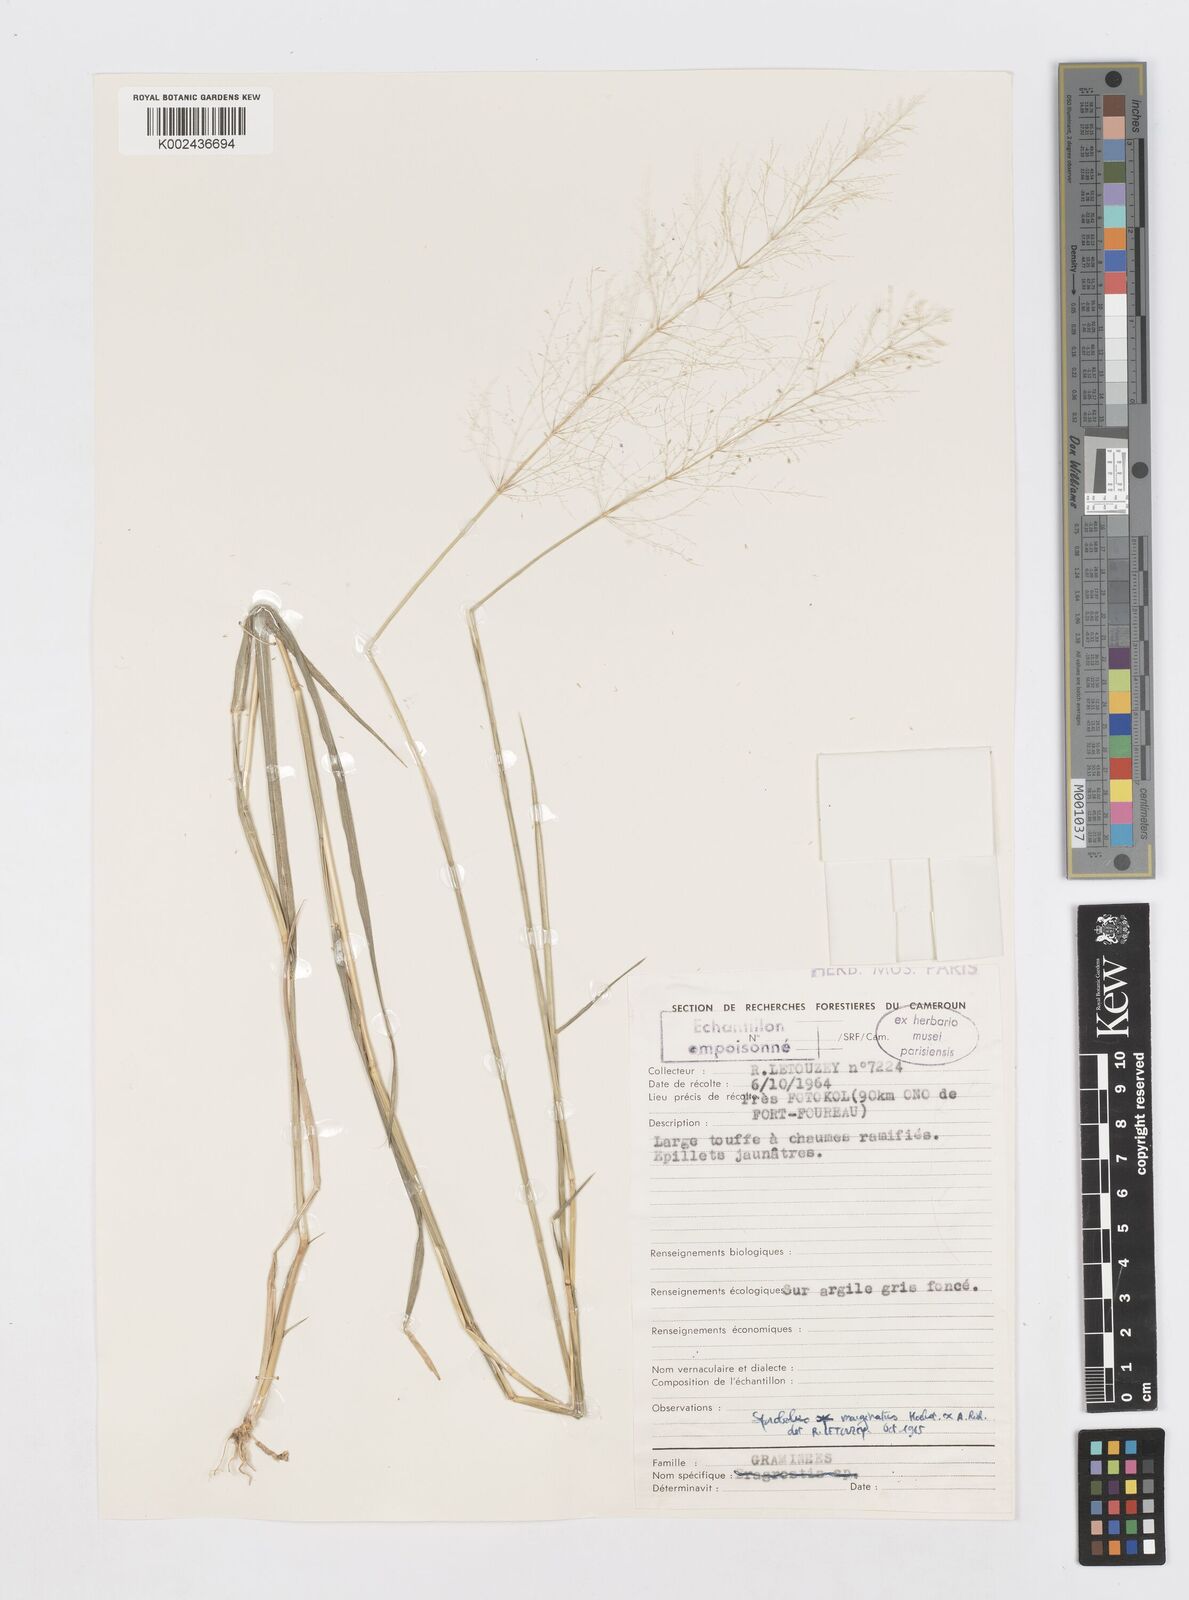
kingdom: Plantae
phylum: Tracheophyta
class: Liliopsida
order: Poales
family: Poaceae
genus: Sporobolus
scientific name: Sporobolus ioclados
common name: Pan dropseed
